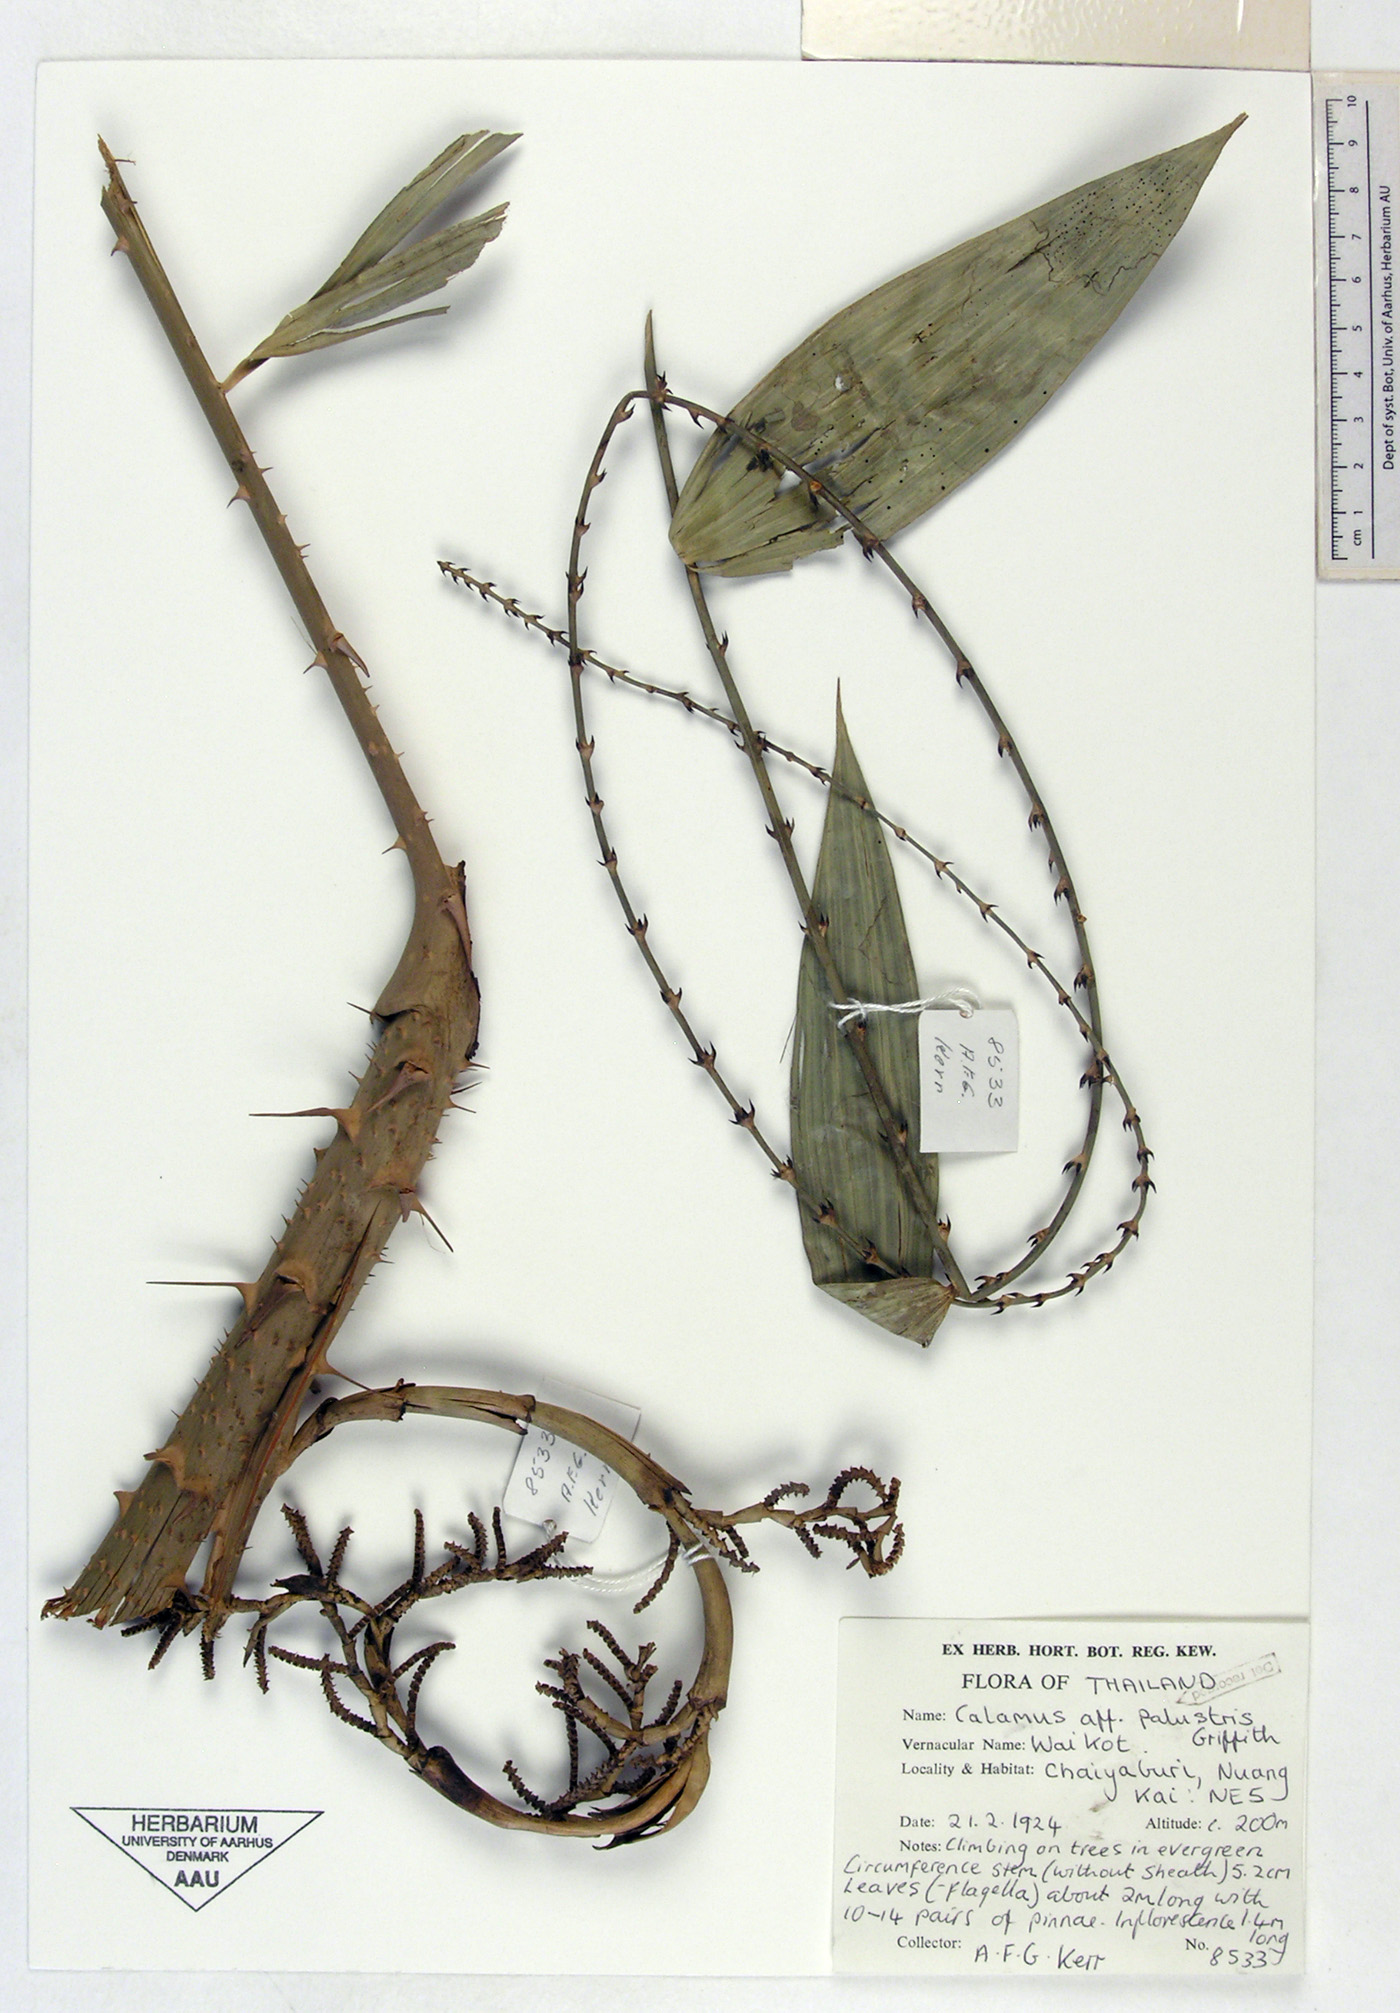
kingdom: Plantae
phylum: Tracheophyta
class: Liliopsida
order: Arecales
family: Arecaceae
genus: Calamus
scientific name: Calamus latifolius
